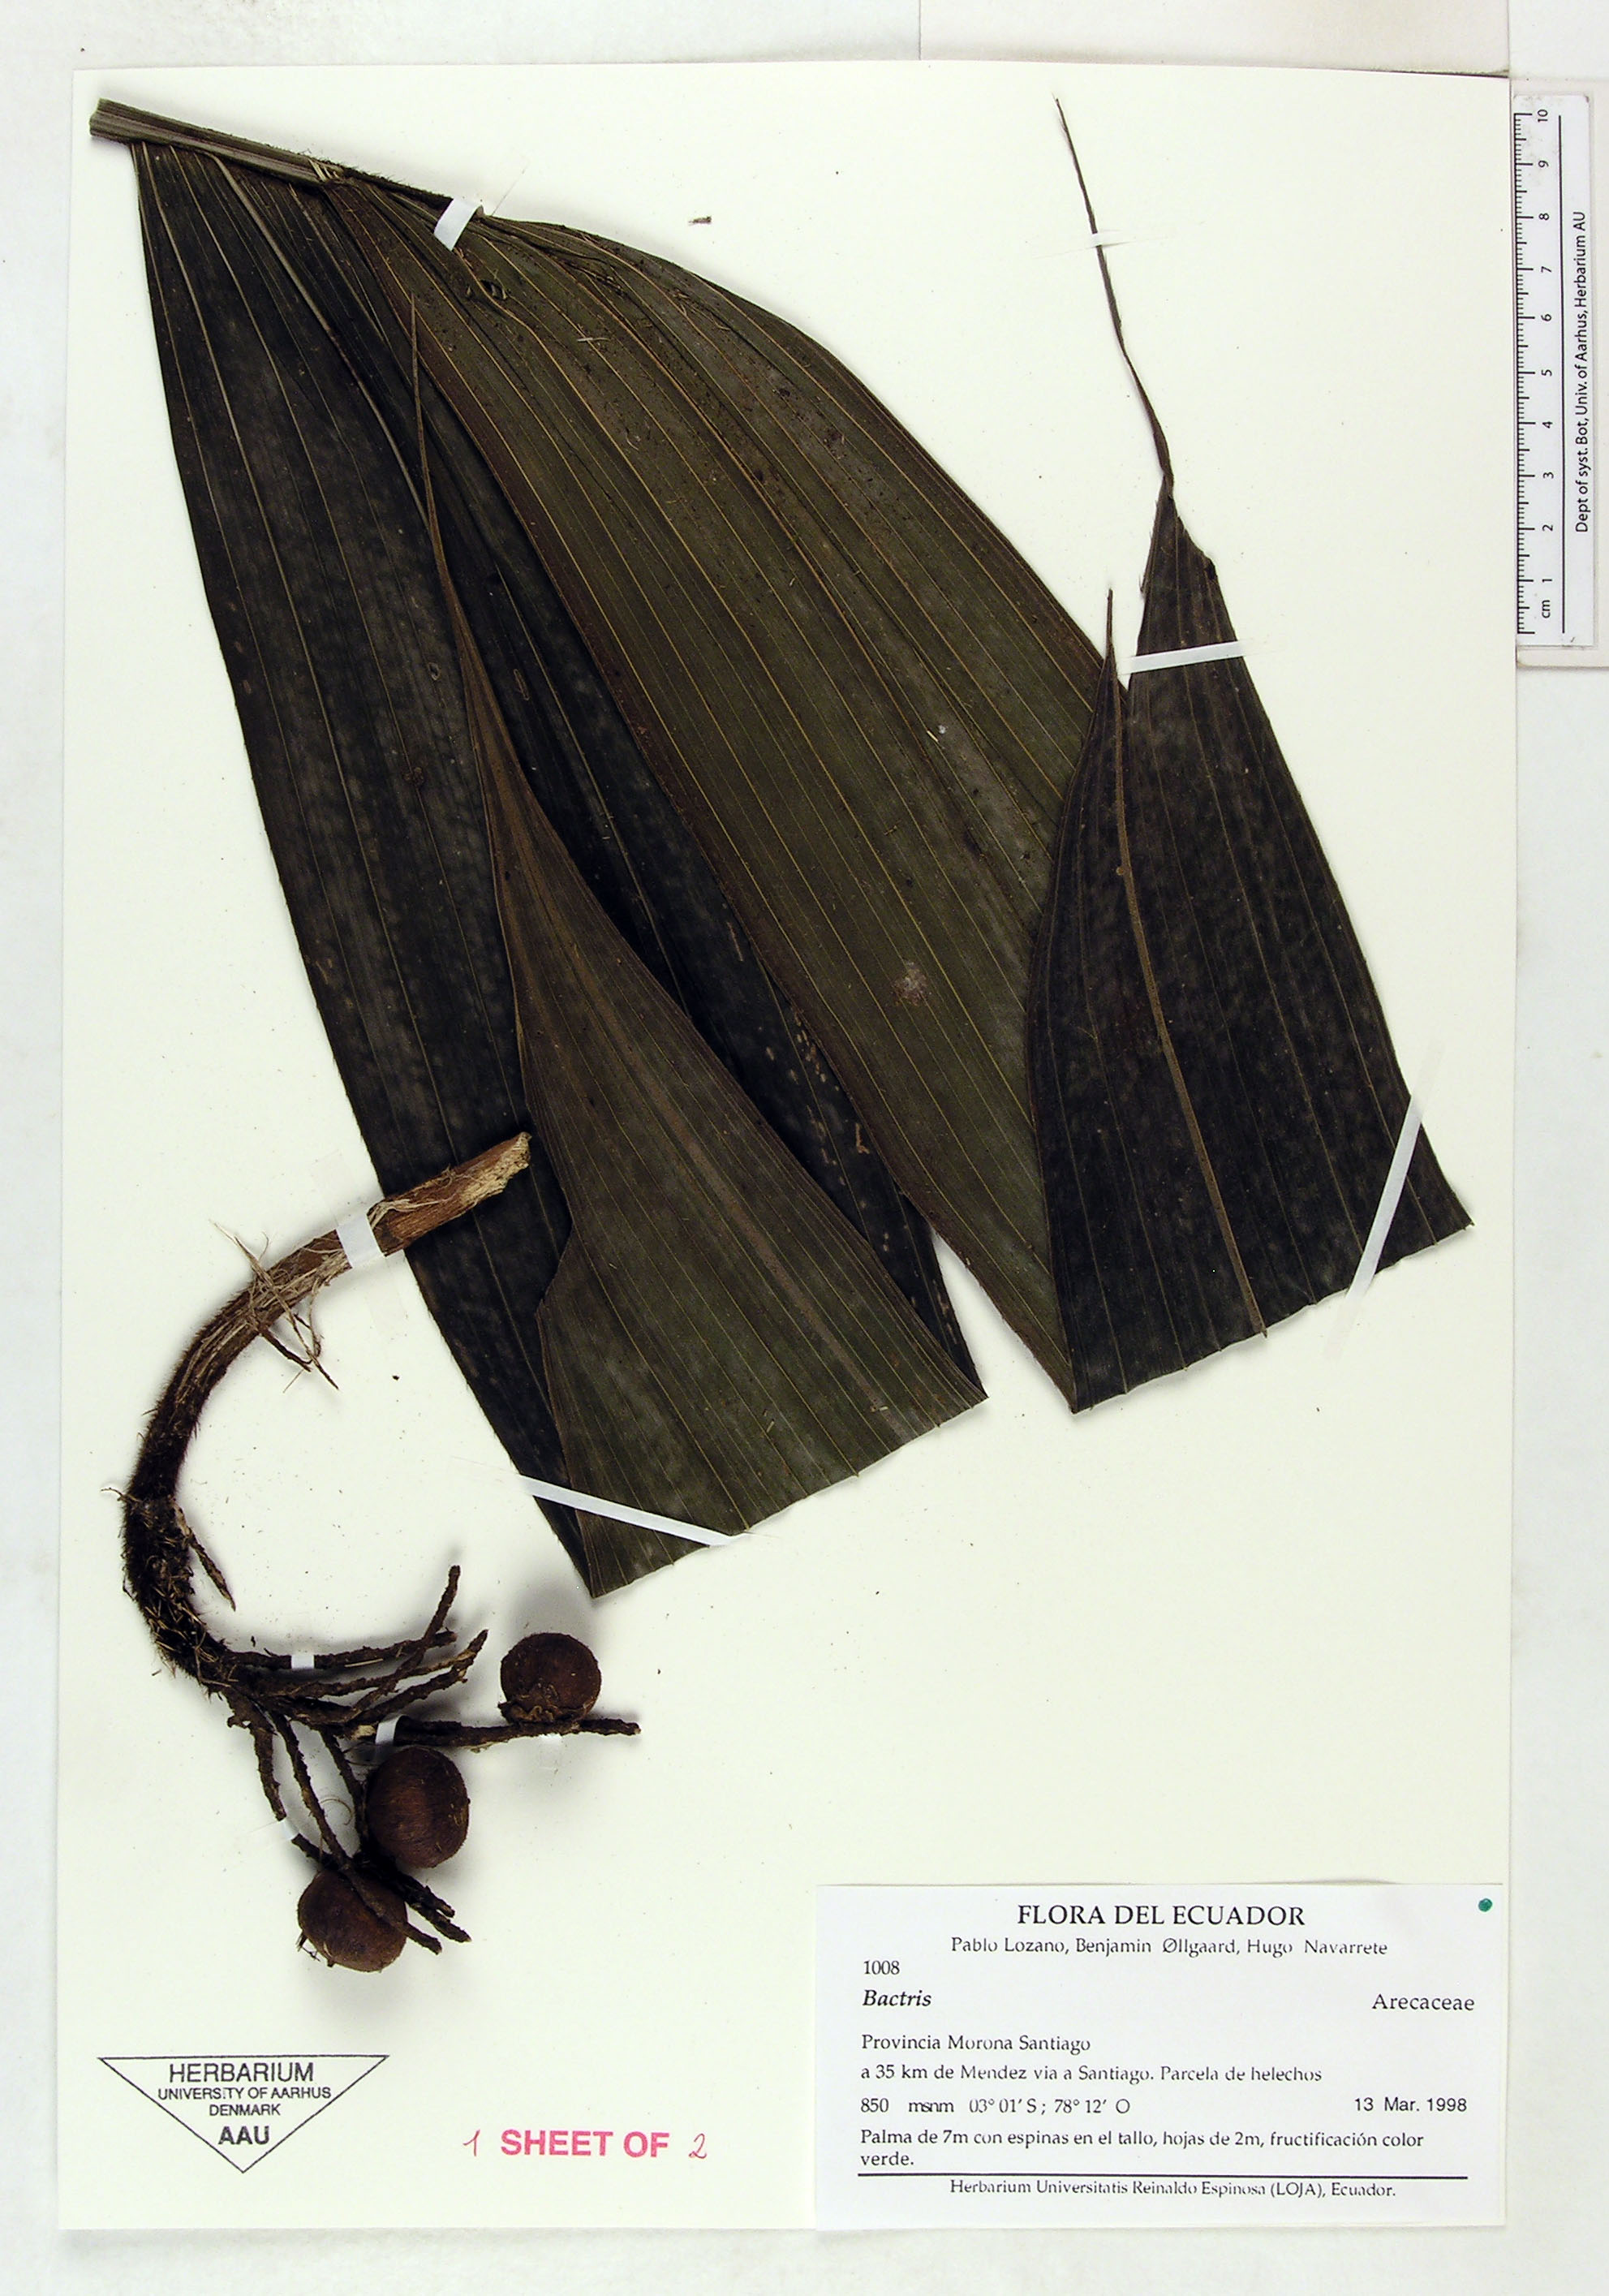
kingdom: Plantae
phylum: Tracheophyta
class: Liliopsida
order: Arecales
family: Arecaceae
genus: Bactris
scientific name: Bactris
